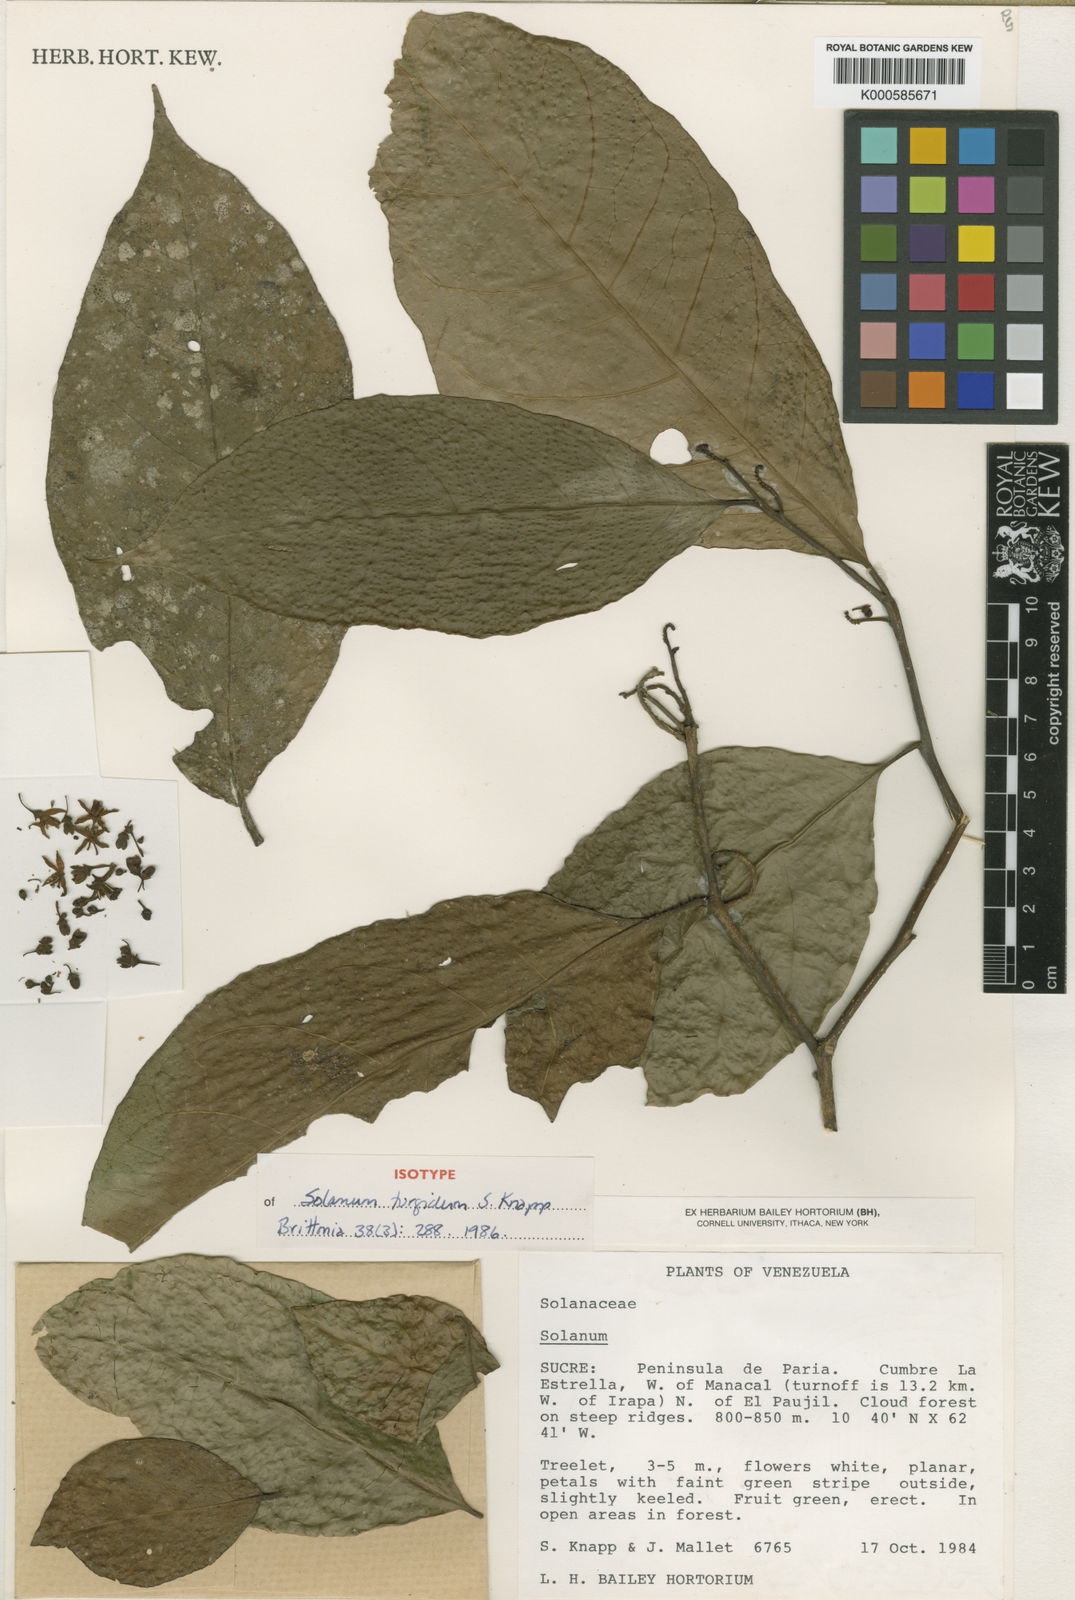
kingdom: Plantae
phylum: Tracheophyta
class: Magnoliopsida
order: Solanales
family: Solanaceae
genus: Solanum
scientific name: Solanum turgidum
